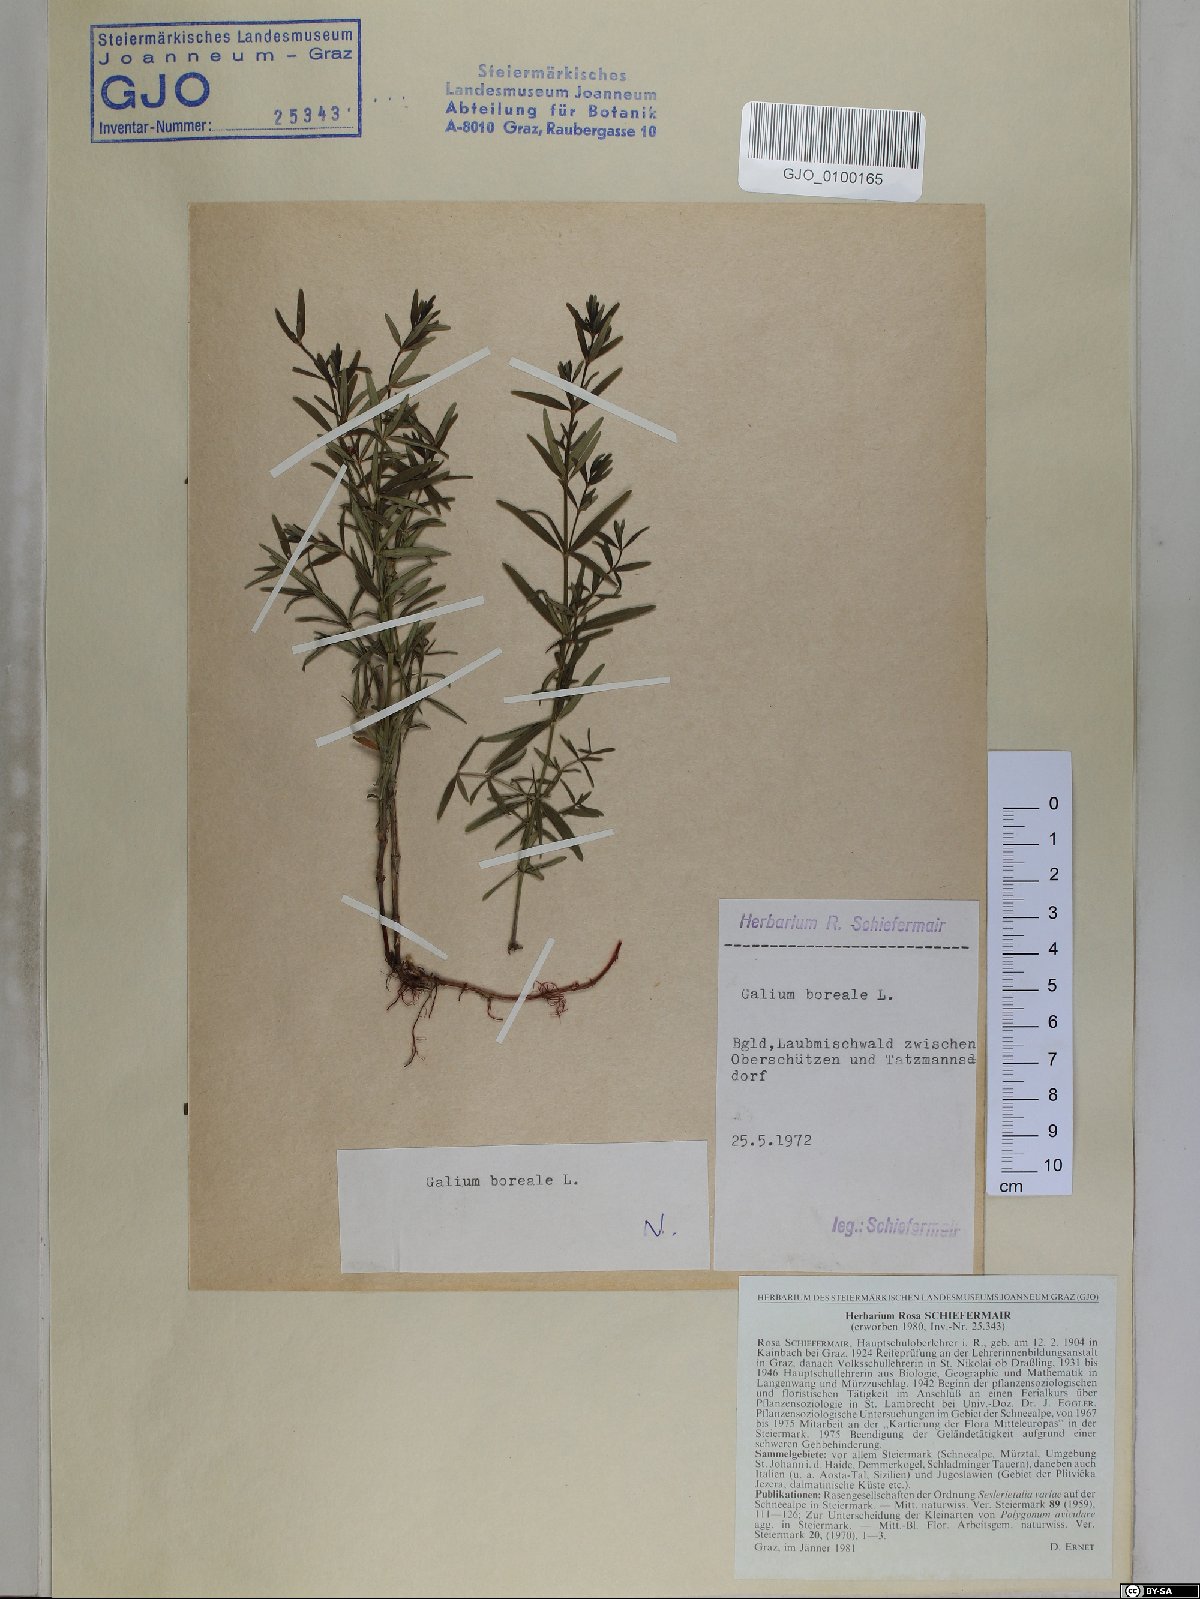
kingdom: Plantae
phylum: Tracheophyta
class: Magnoliopsida
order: Gentianales
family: Rubiaceae
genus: Galium
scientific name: Galium boreale
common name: Northern bedstraw
